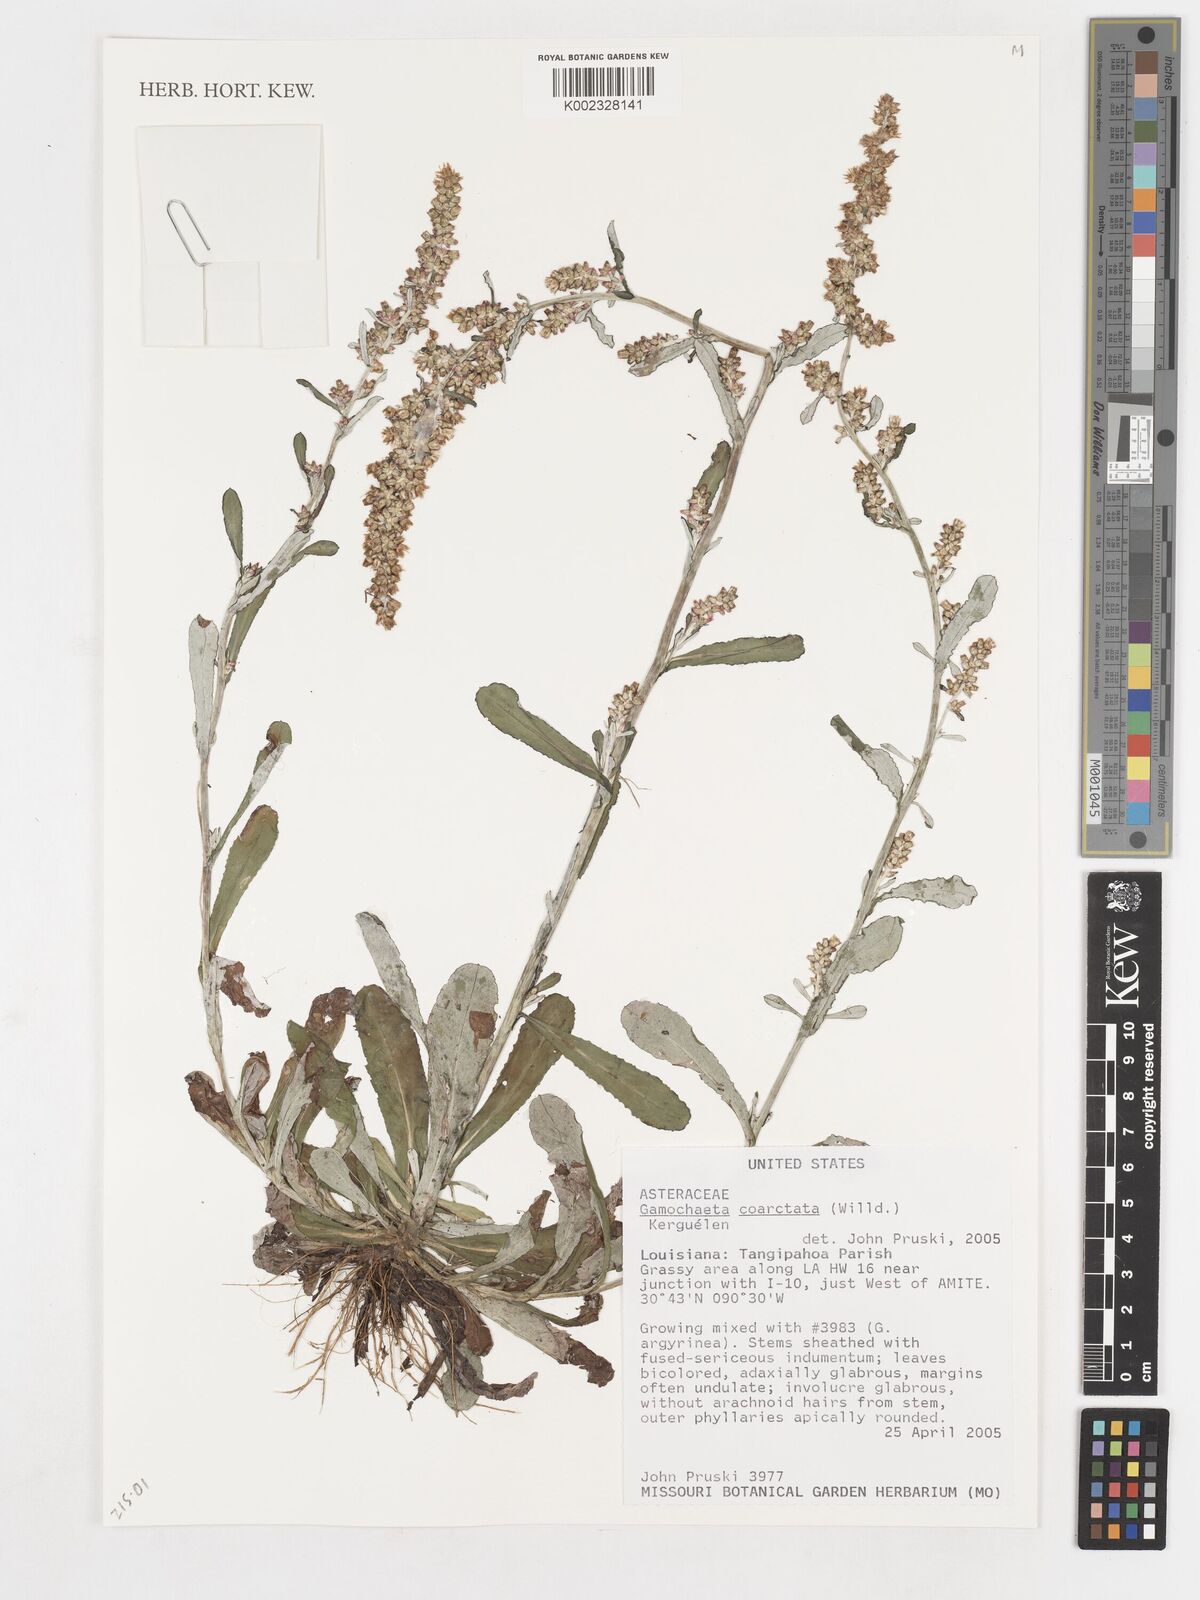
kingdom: Plantae
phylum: Tracheophyta
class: Magnoliopsida
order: Asterales
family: Asteraceae
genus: Gamochaeta
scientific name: Gamochaeta americana
